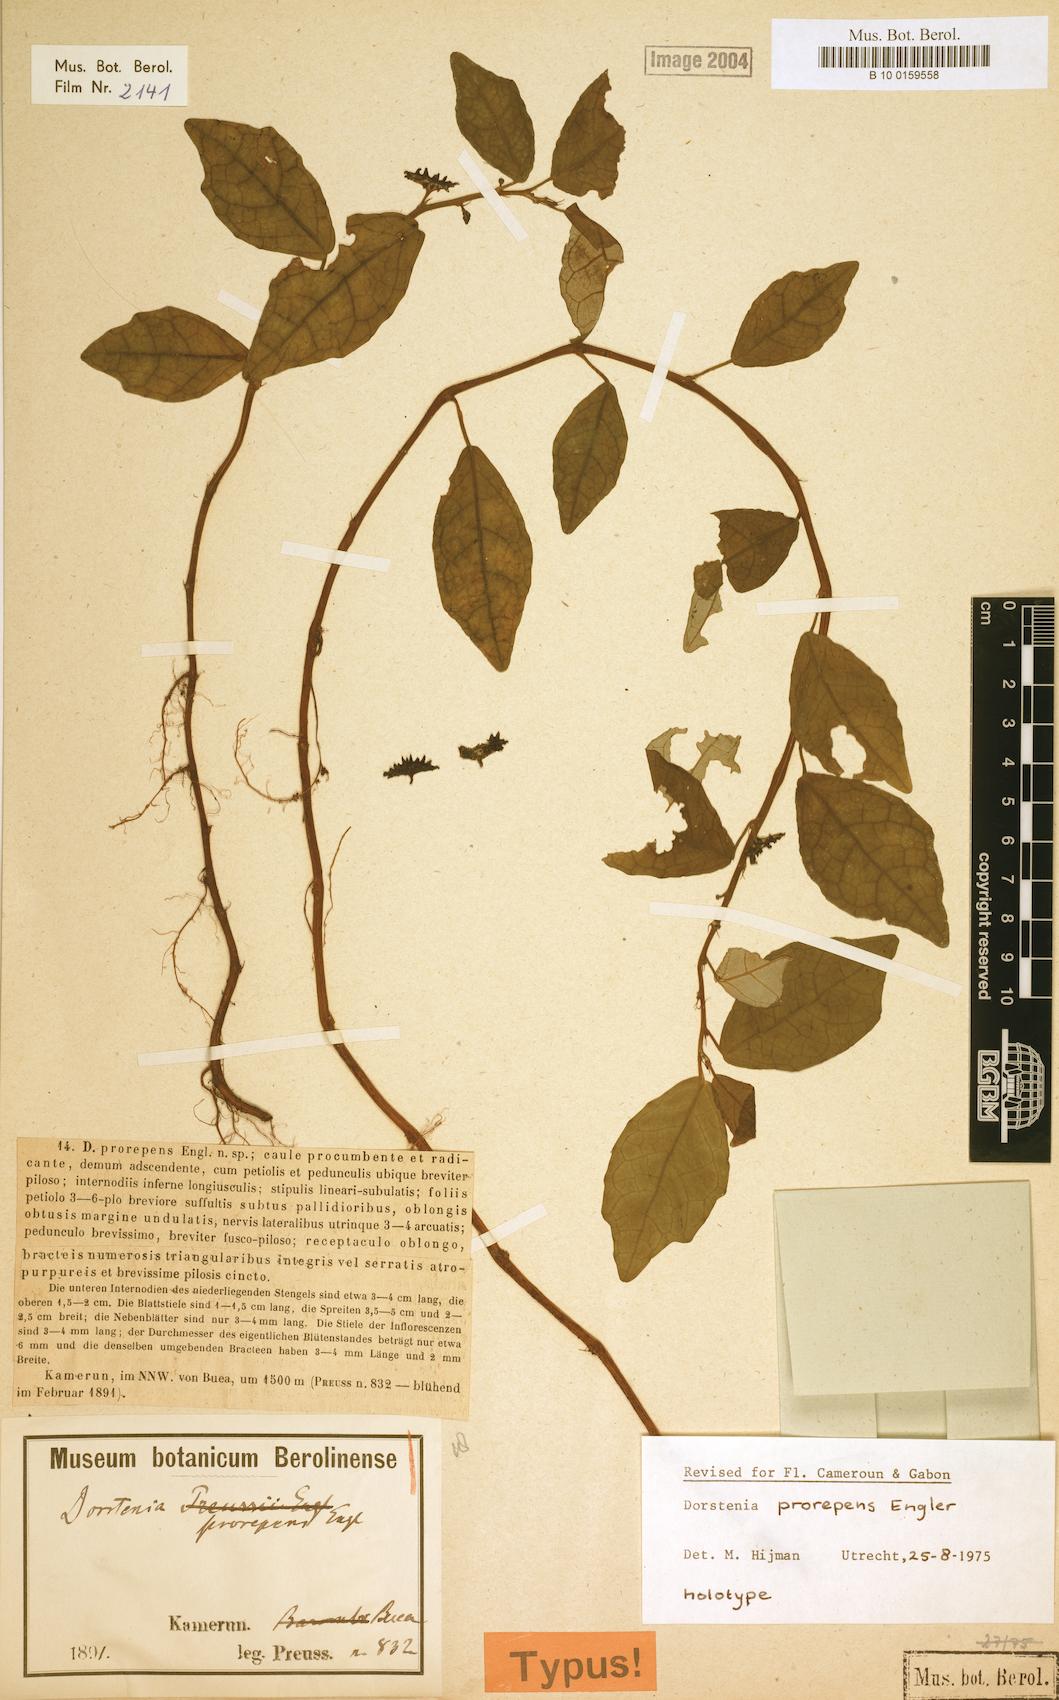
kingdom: Plantae
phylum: Tracheophyta
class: Magnoliopsida
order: Rosales
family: Moraceae
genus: Dorstenia
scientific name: Dorstenia prorepens
